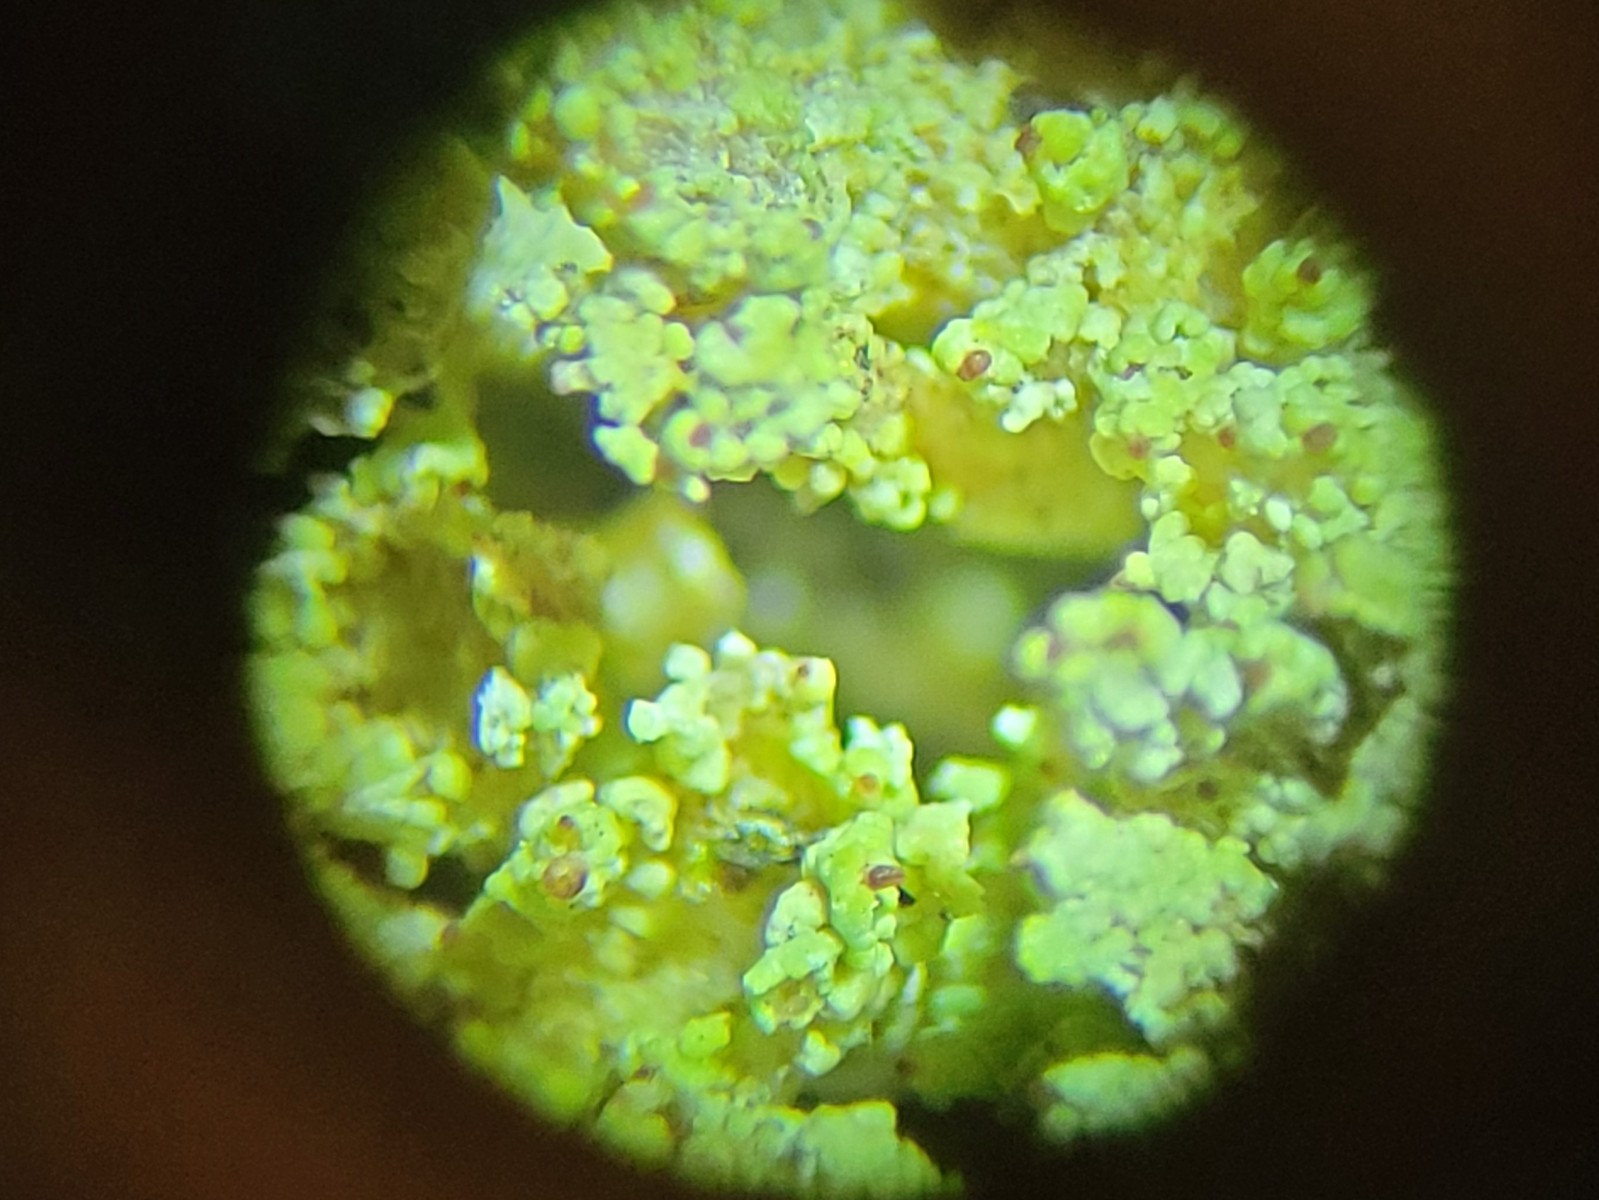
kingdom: Fungi
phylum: Ascomycota
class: Lecanoromycetes
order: Lecanorales
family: Cladoniaceae
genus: Cladonia
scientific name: Cladonia ramulosa
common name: kliddet bægerlav
